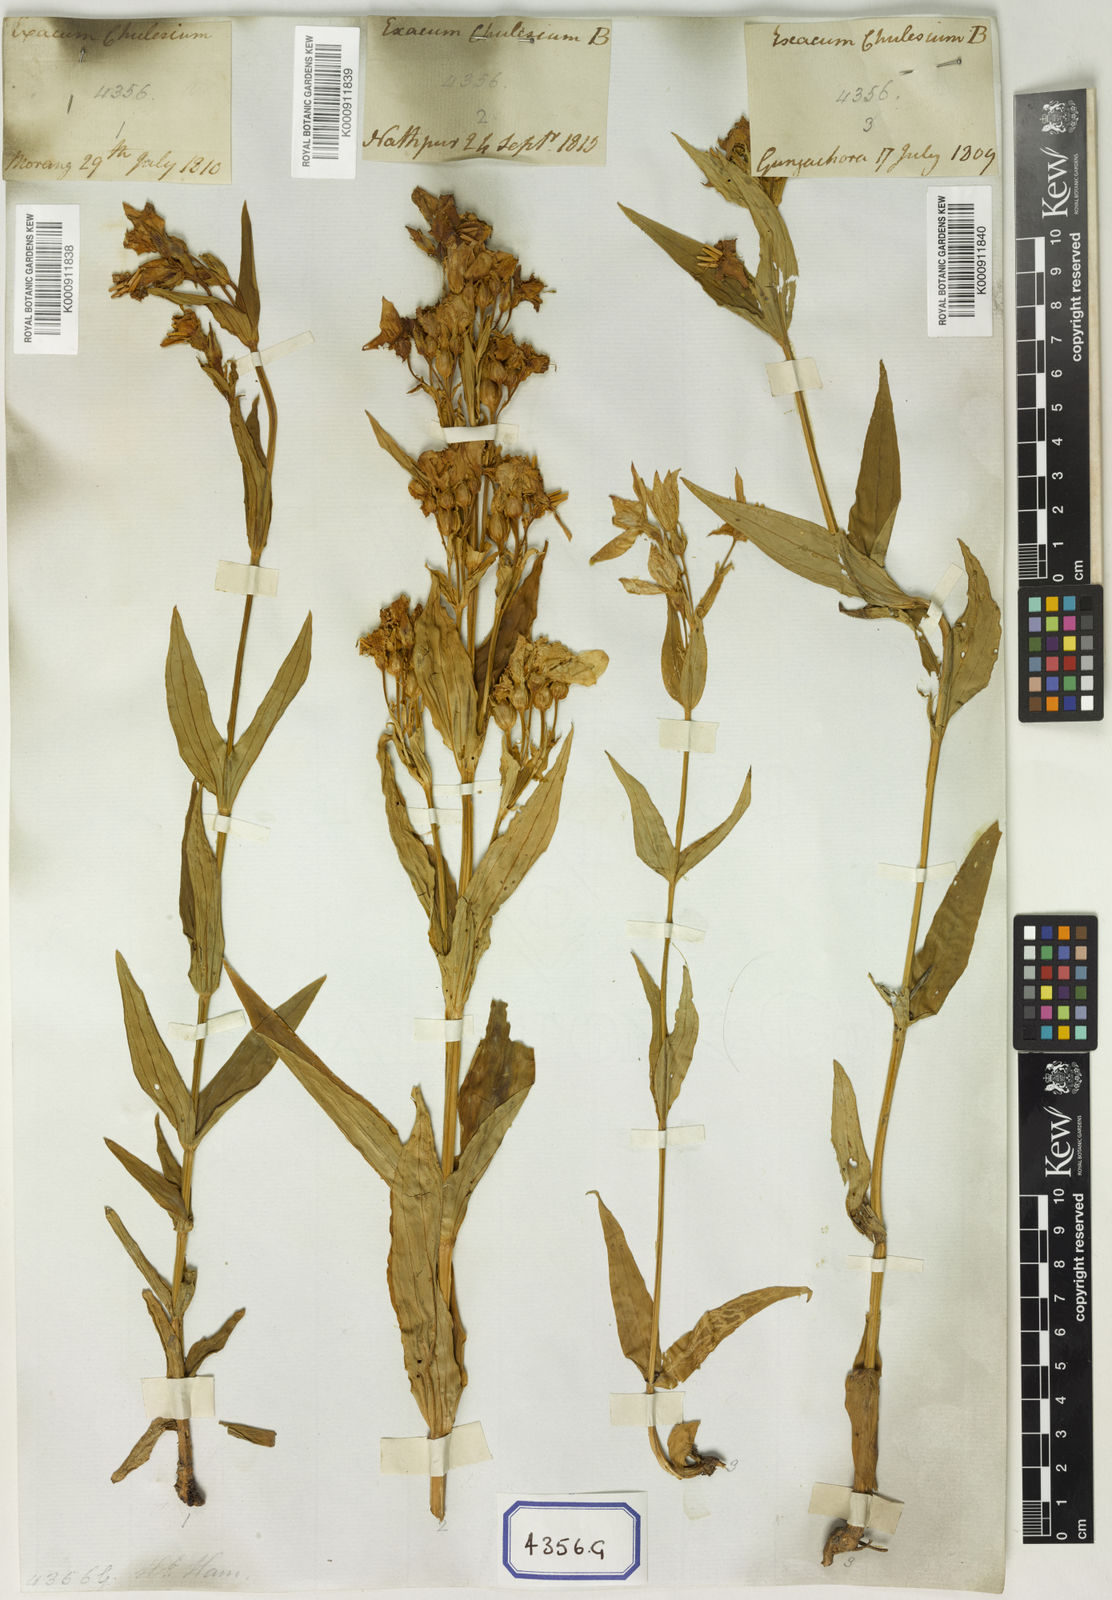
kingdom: Plantae
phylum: Tracheophyta
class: Magnoliopsida
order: Gentianales
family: Gentianaceae
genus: Exacum
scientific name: Exacum tetragonum
